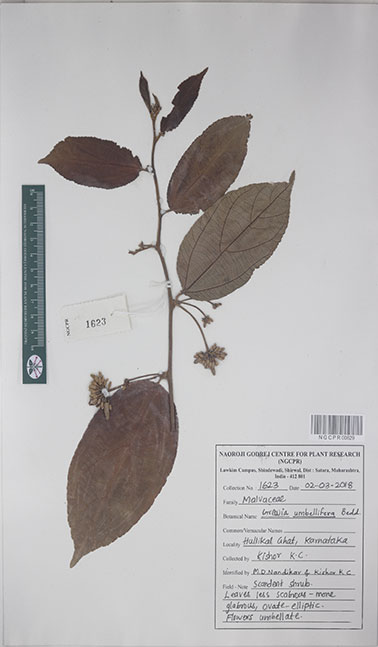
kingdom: Plantae
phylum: Tracheophyta
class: Magnoliopsida
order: Malvales
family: Malvaceae
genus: Grewia
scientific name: Grewia umbellifera
